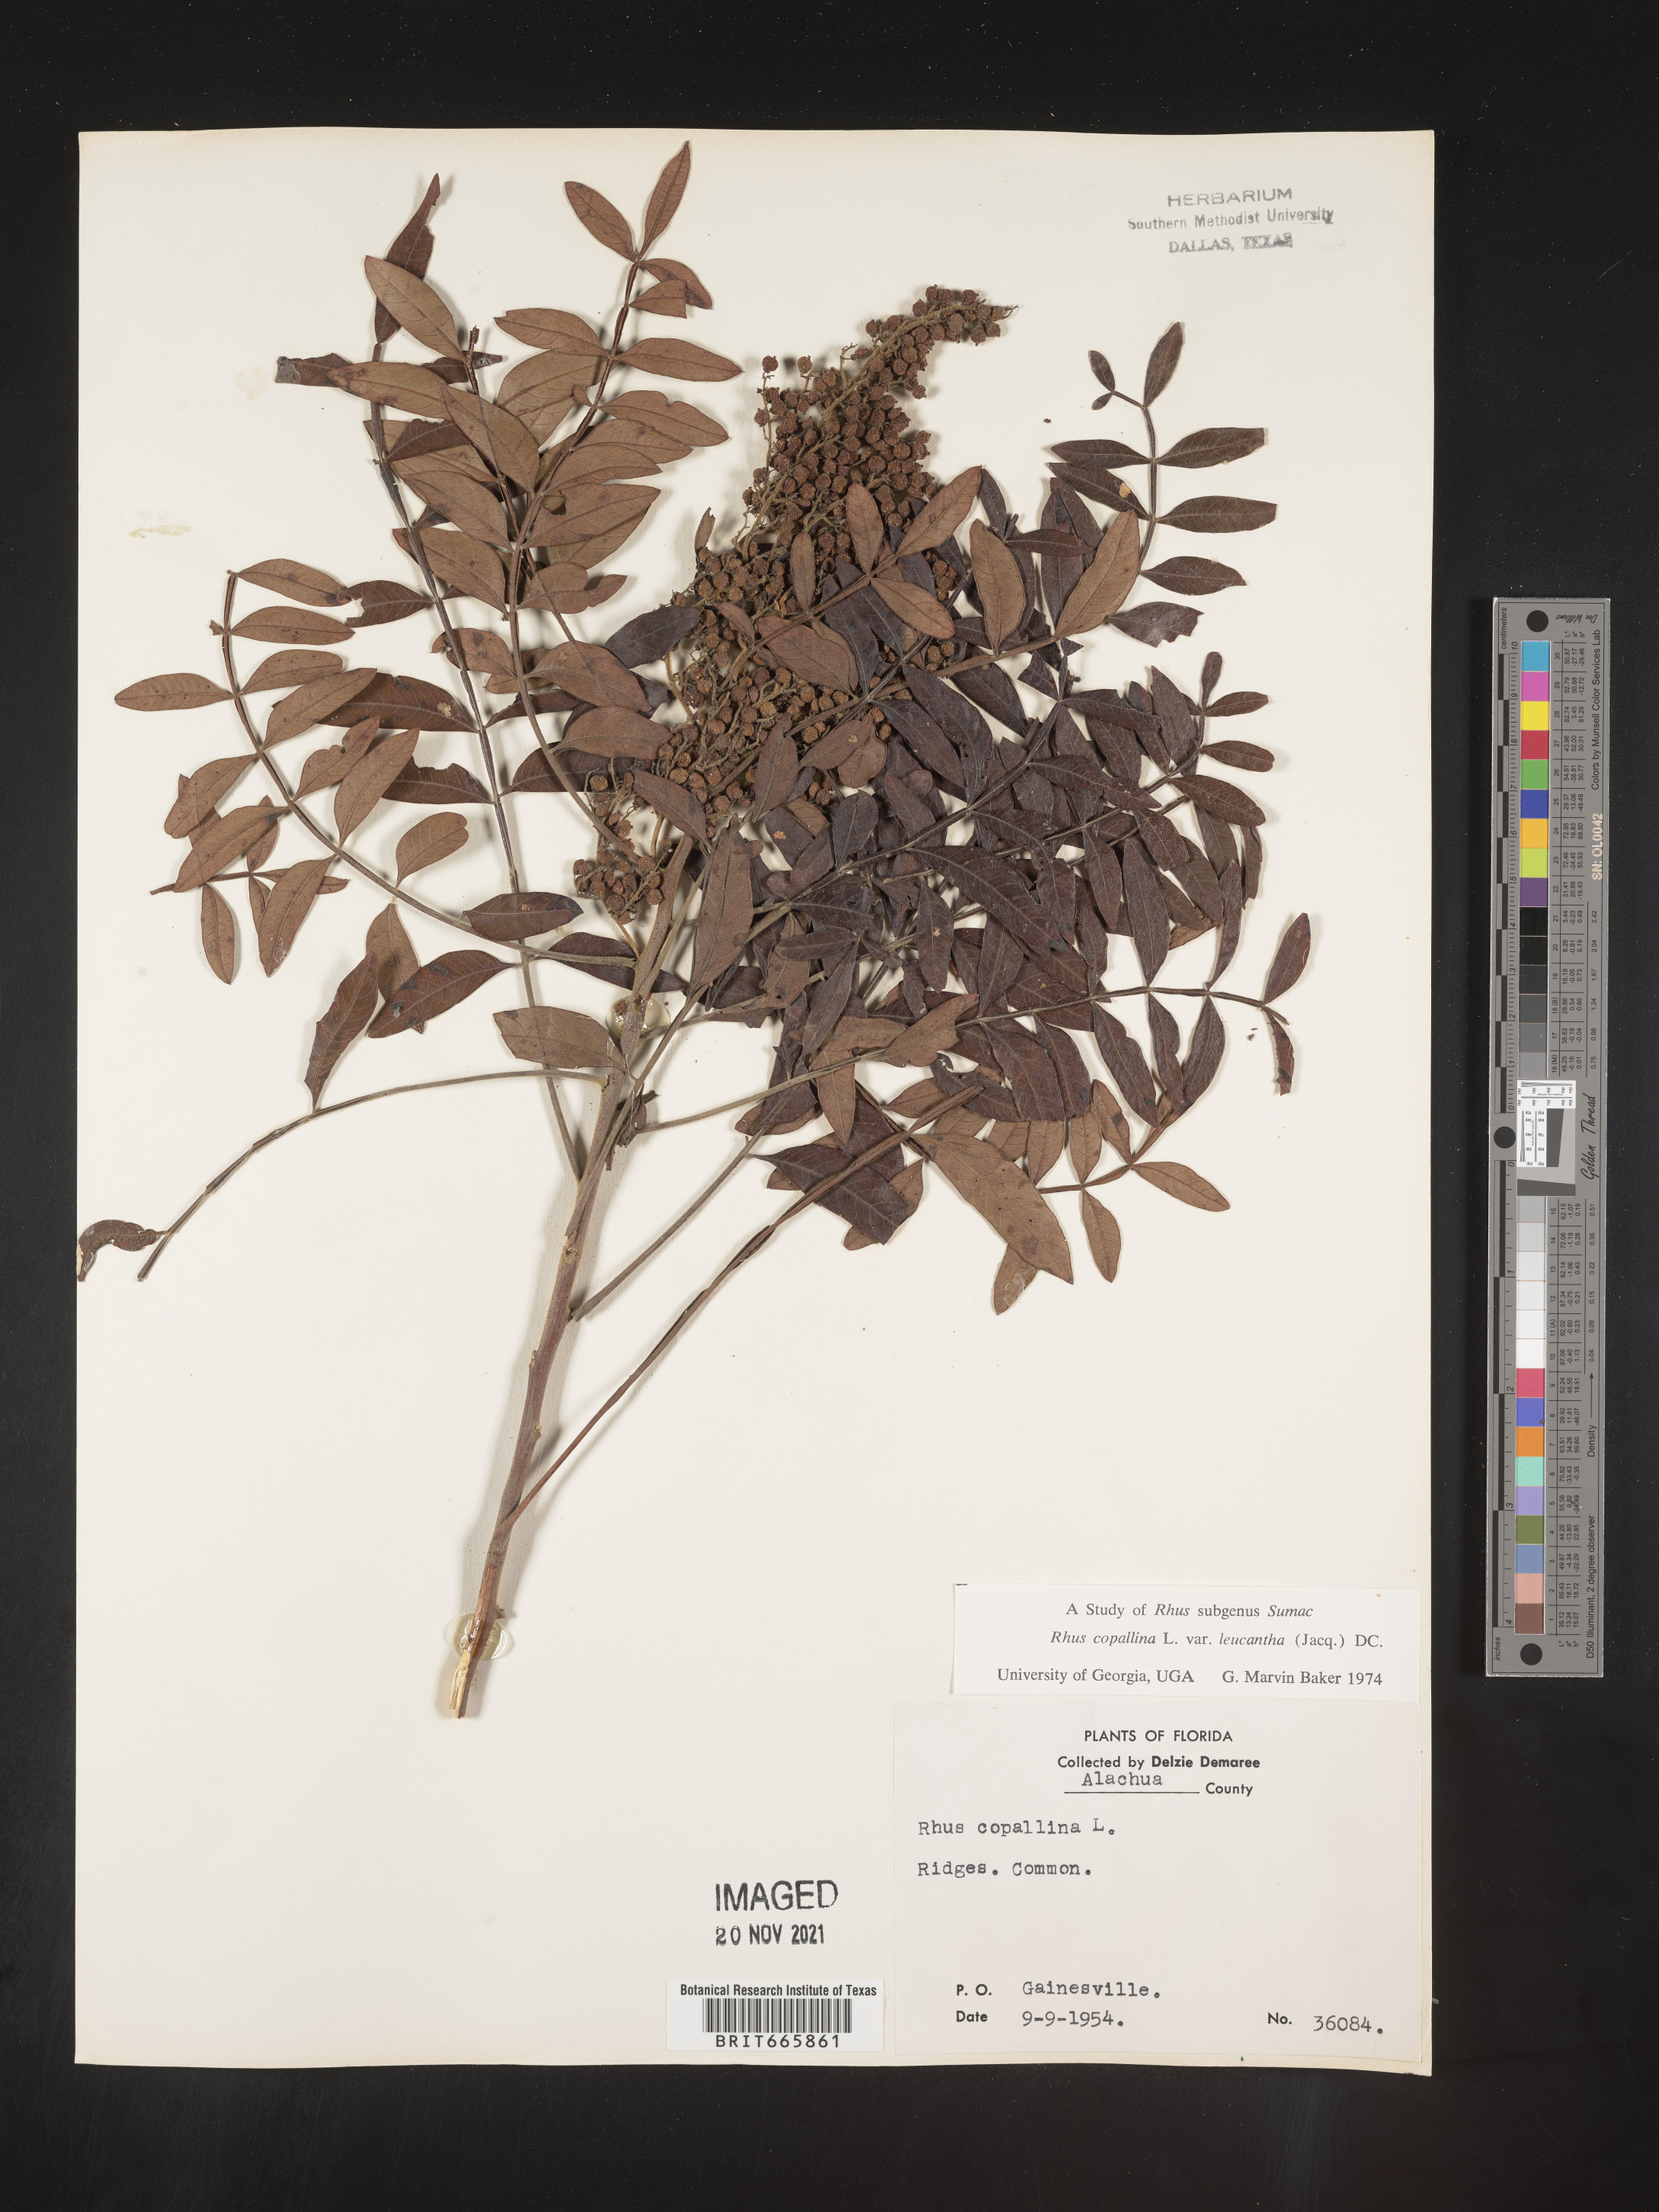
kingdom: Plantae
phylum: Tracheophyta
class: Magnoliopsida
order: Sapindales
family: Anacardiaceae
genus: Rhus
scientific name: Rhus copallina
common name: Shining sumac
